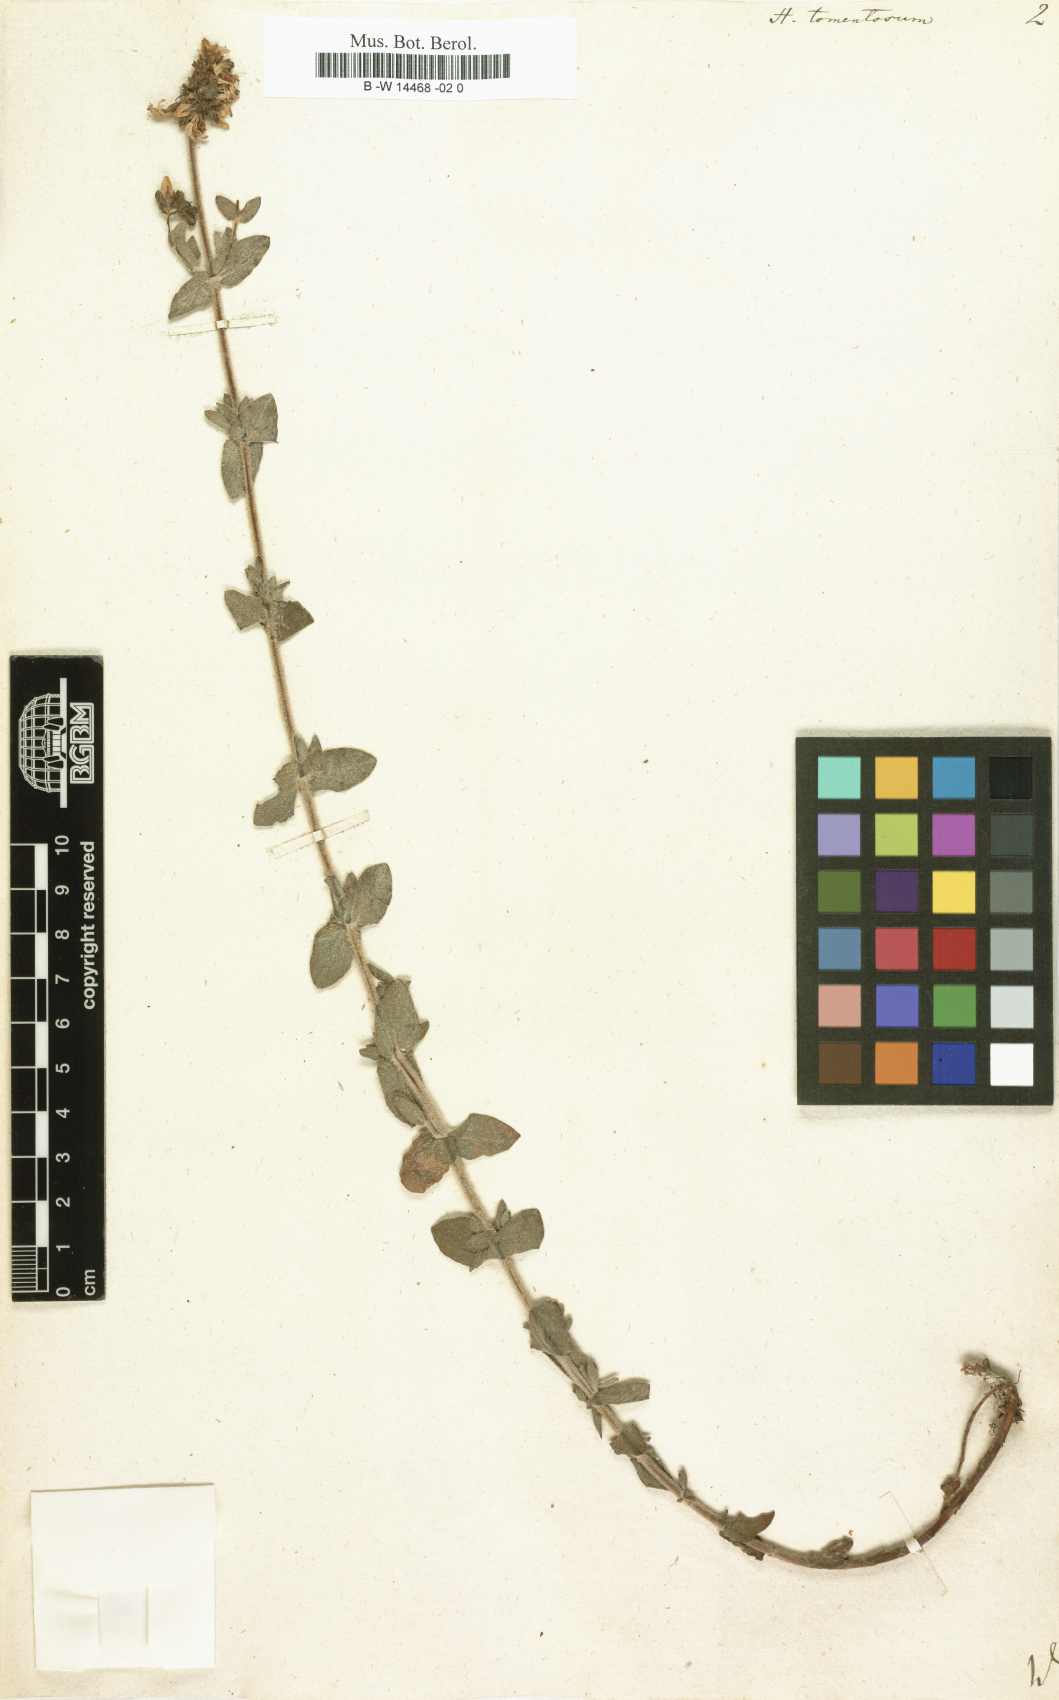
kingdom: Plantae
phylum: Tracheophyta
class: Magnoliopsida
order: Malpighiales
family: Hypericaceae
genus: Hypericum
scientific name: Hypericum tomentosum
